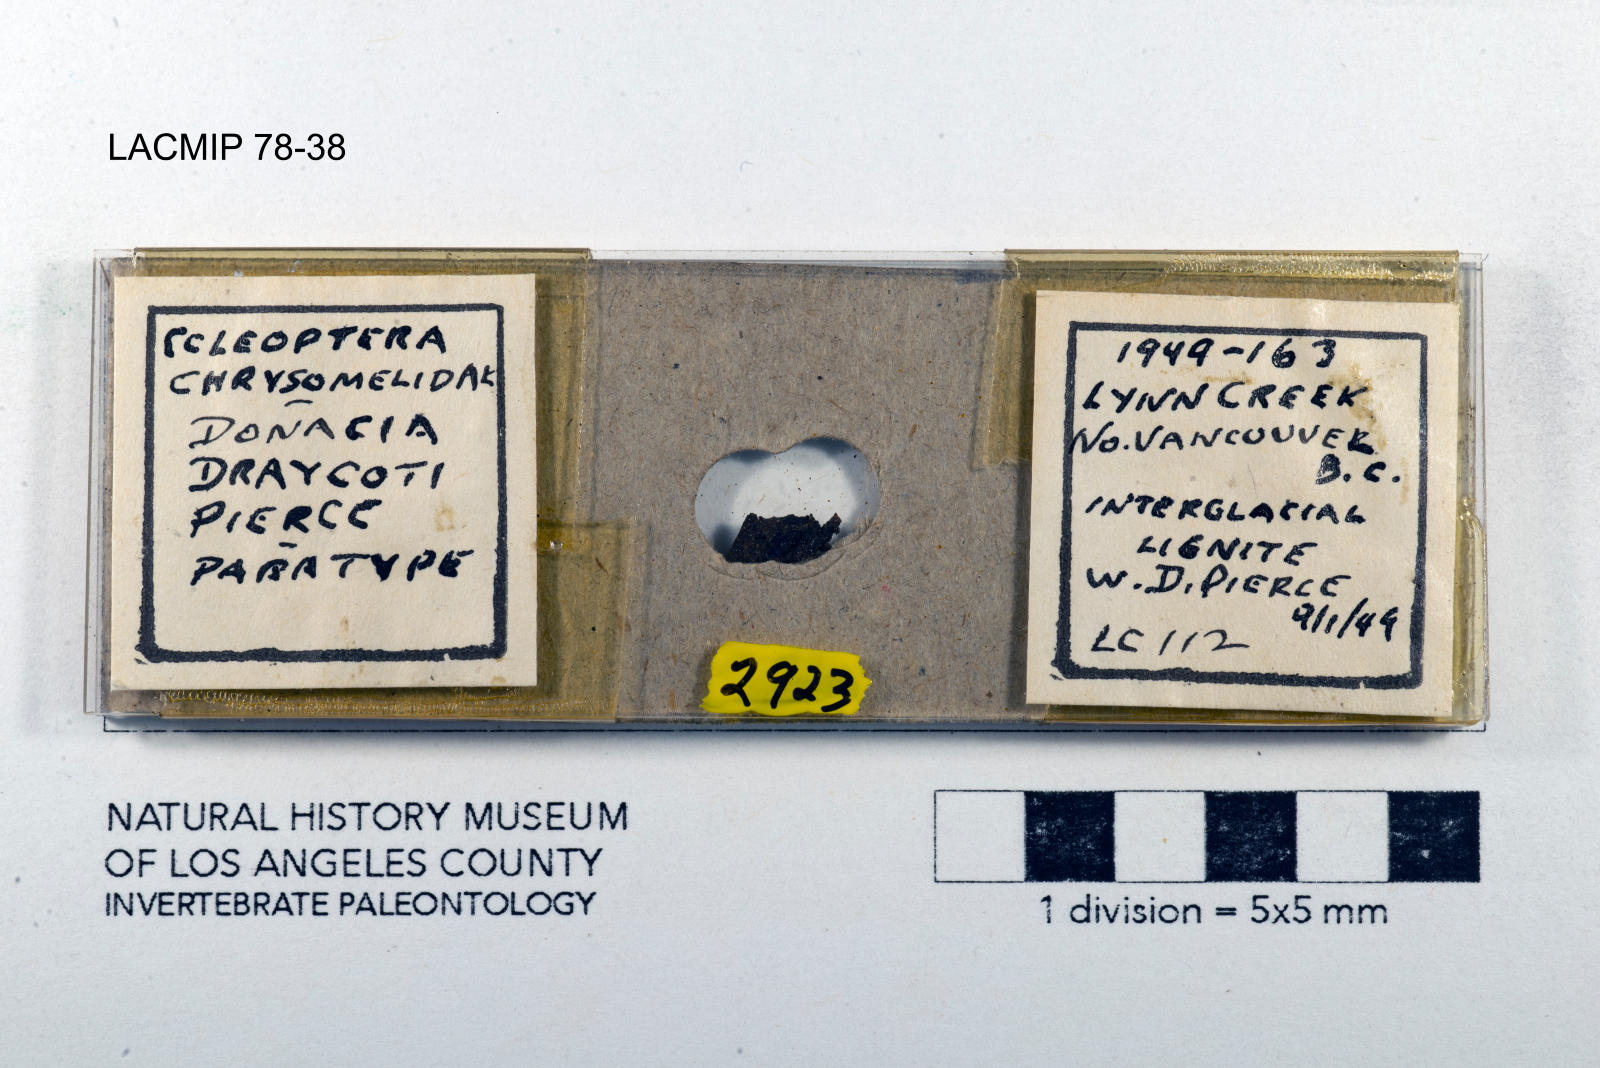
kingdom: Animalia
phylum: Arthropoda
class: Insecta
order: Coleoptera
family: Chrysomelidae
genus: Donacia
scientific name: Donacia draycoti
